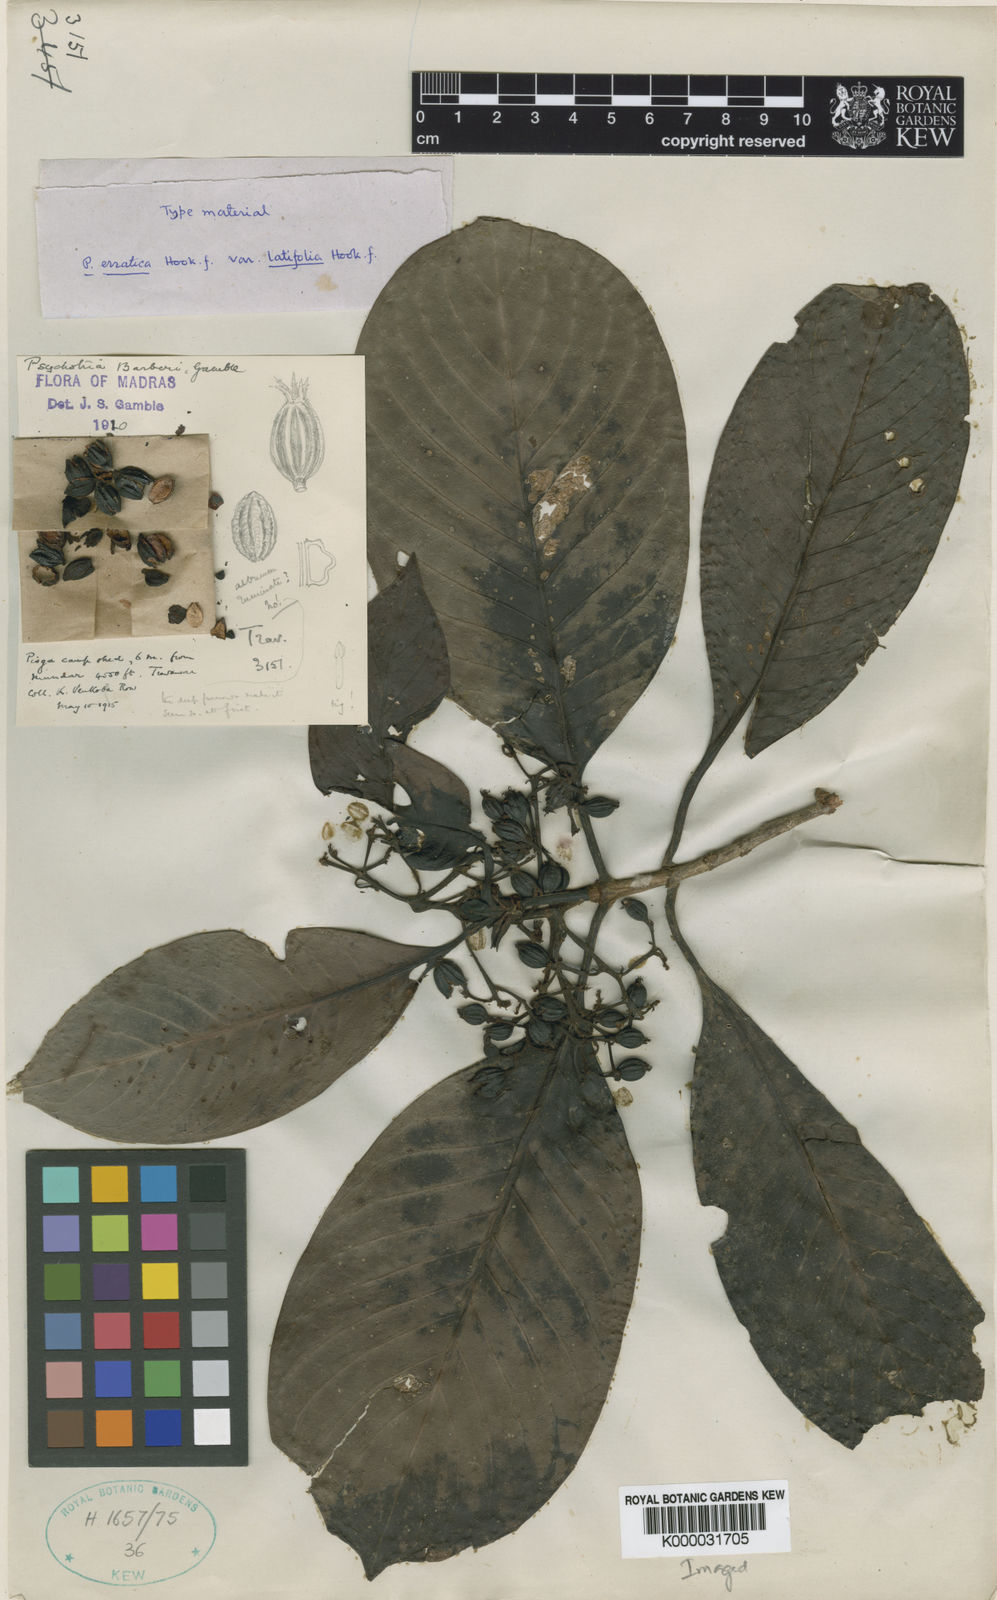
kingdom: Plantae
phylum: Tracheophyta
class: Magnoliopsida
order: Gentianales
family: Rubiaceae
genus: Psychotria
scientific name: Psychotria barberi
